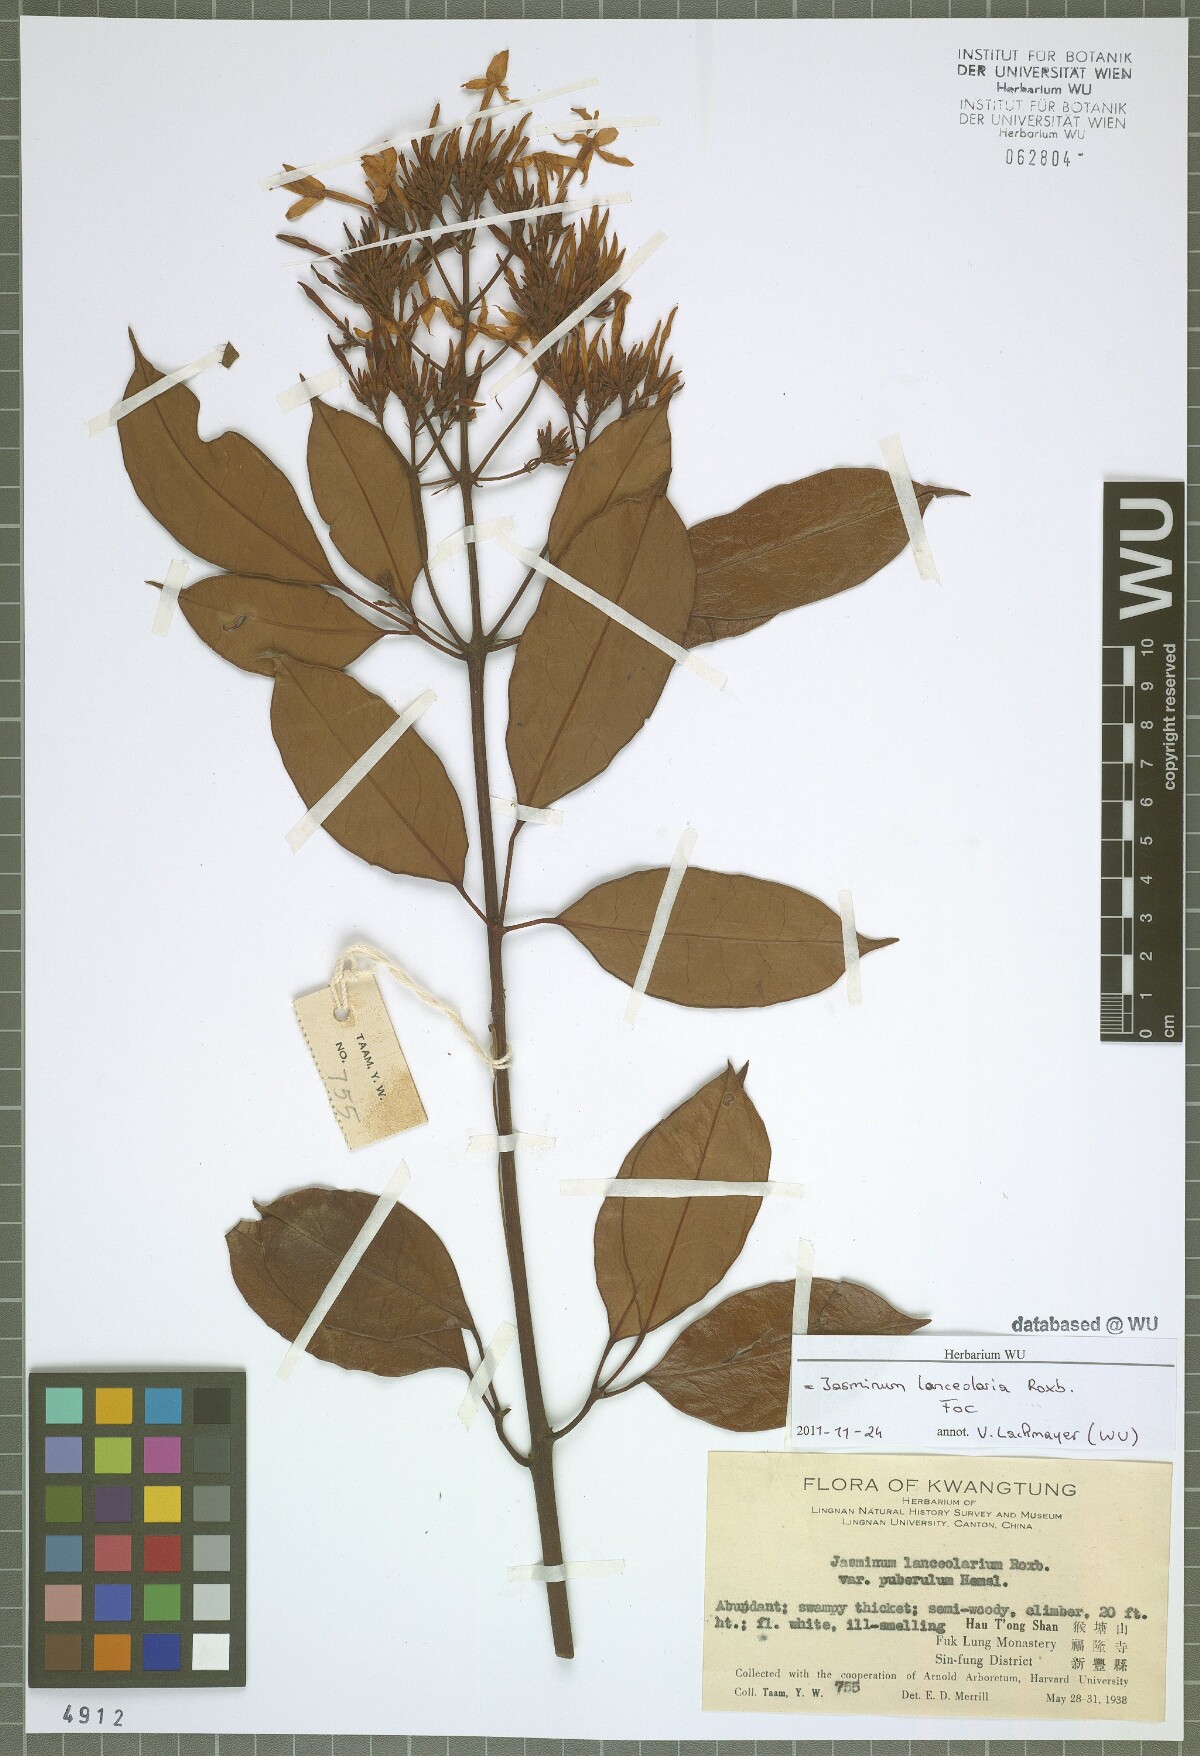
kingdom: Plantae
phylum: Tracheophyta
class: Magnoliopsida
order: Lamiales
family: Oleaceae
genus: Jasminum
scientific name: Jasminum lanceolaria
